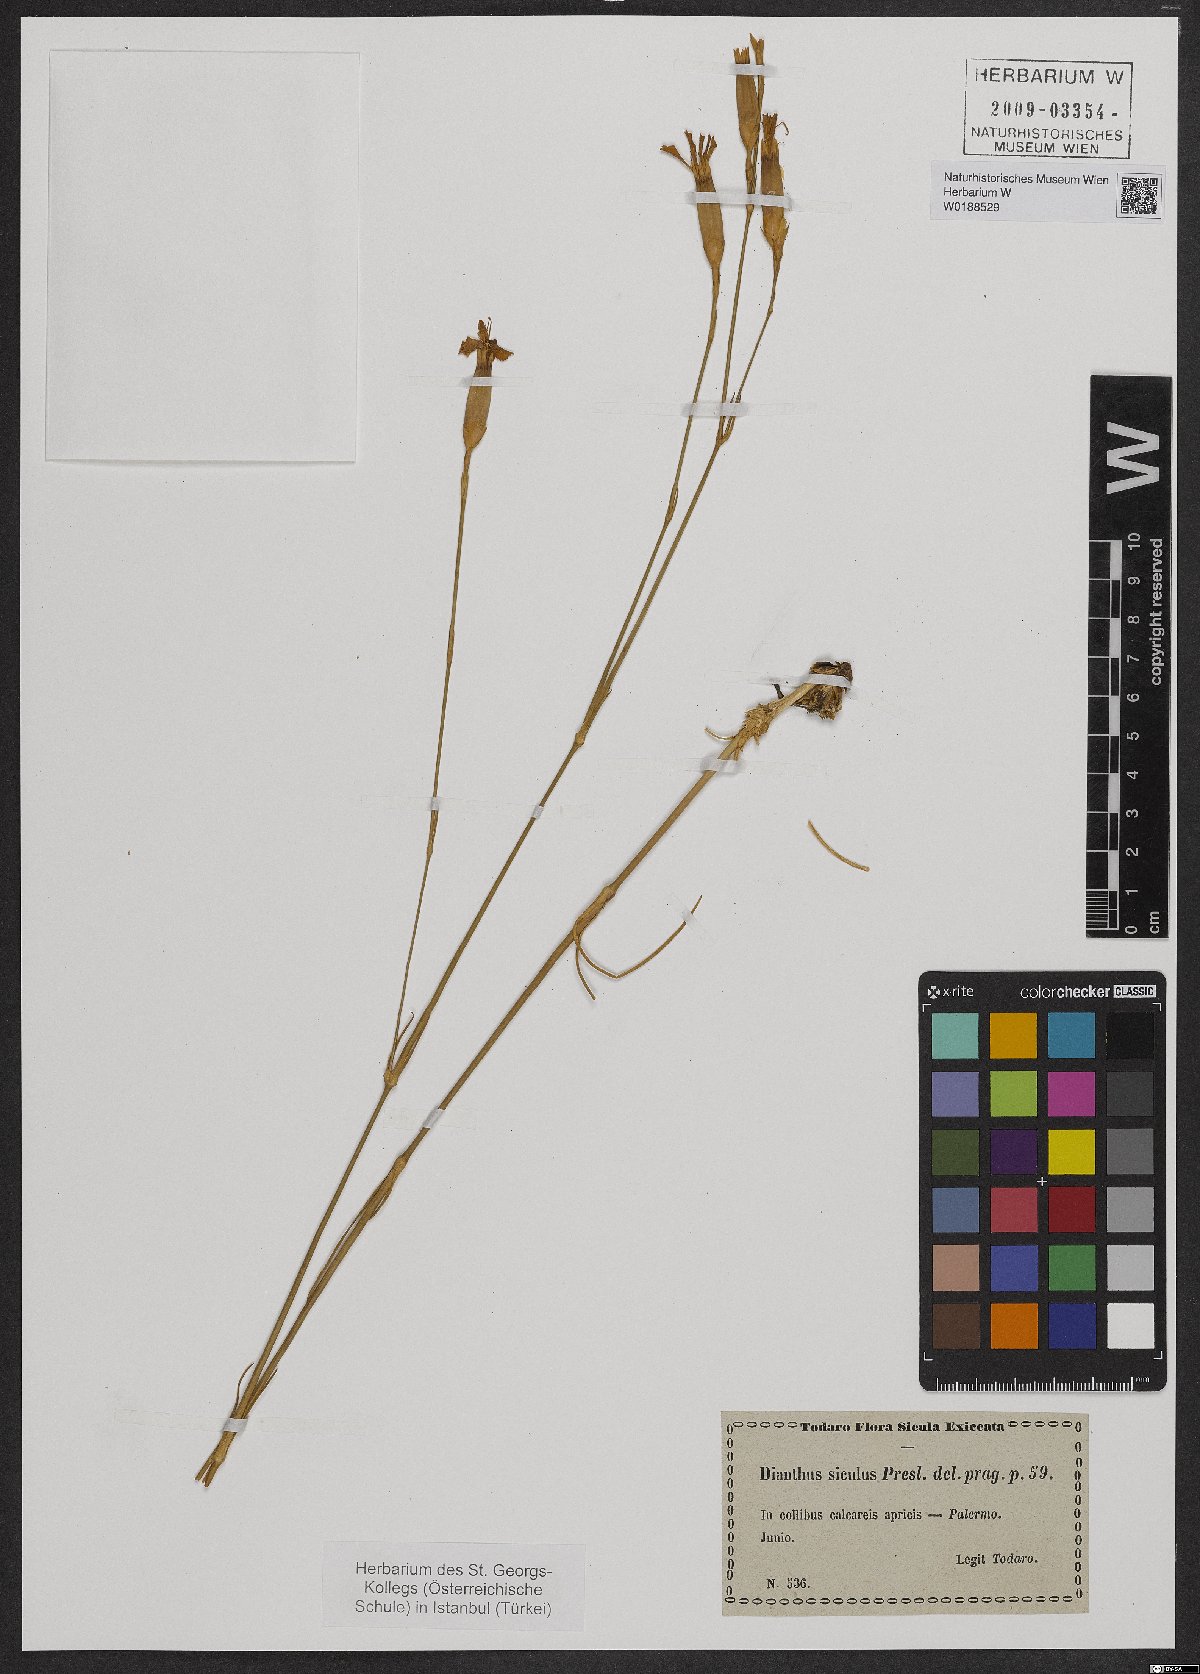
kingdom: Plantae
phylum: Tracheophyta
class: Magnoliopsida
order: Caryophyllales
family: Caryophyllaceae
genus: Dianthus
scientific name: Dianthus siculus
